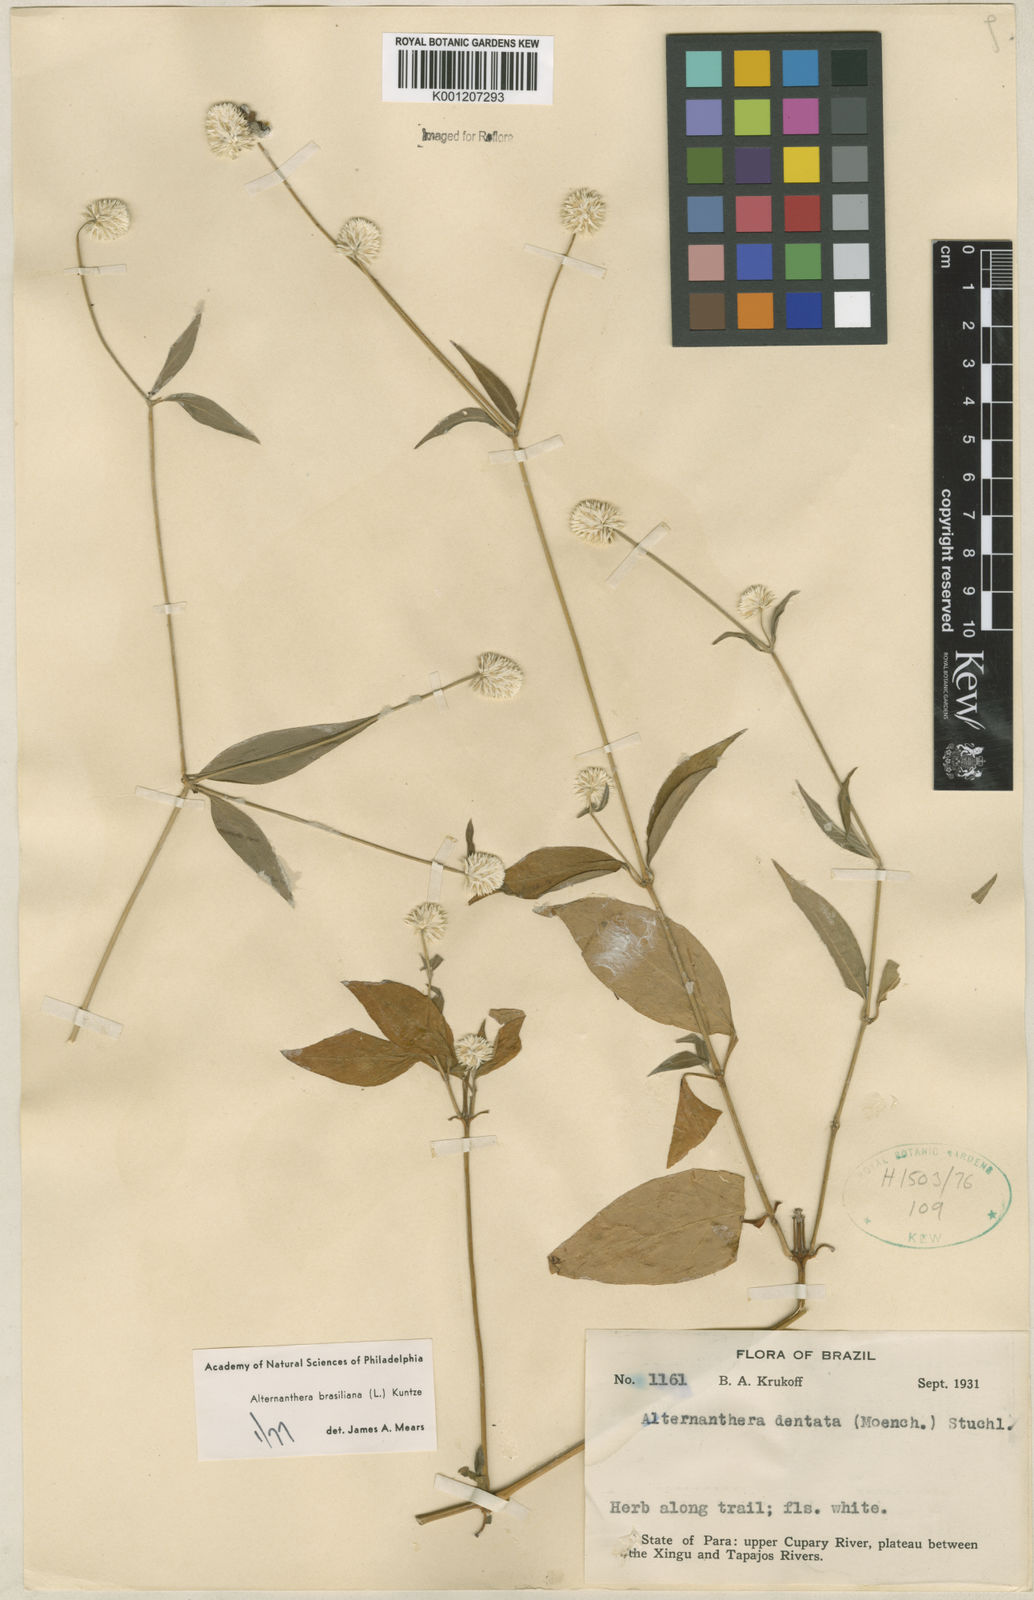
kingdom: Plantae
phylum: Tracheophyta
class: Magnoliopsida
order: Caryophyllales
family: Amaranthaceae
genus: Alternanthera
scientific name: Alternanthera brasiliana
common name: Brazilian joyweed
